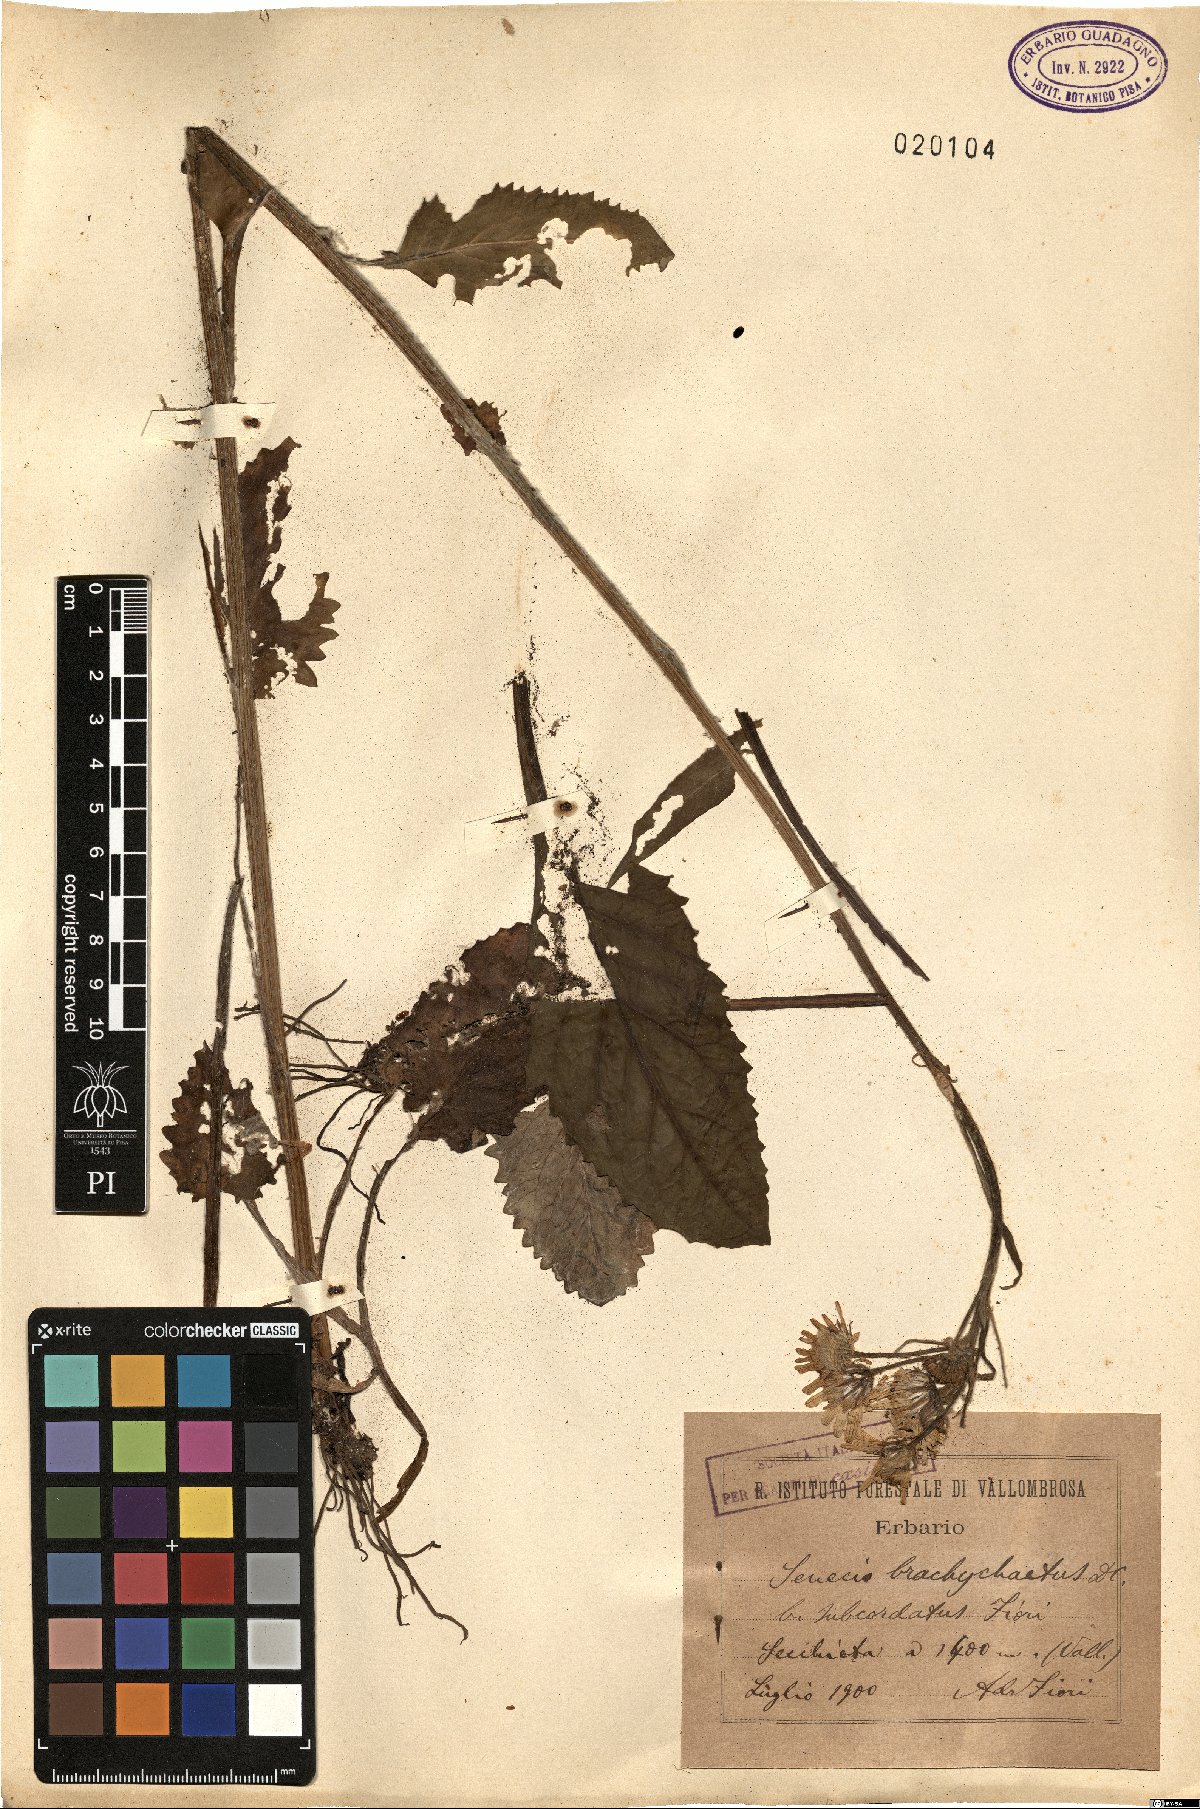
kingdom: Plantae
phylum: Tracheophyta
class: Magnoliopsida
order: Asterales
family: Asteraceae
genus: Tephroseris
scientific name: Tephroseris helenitis
